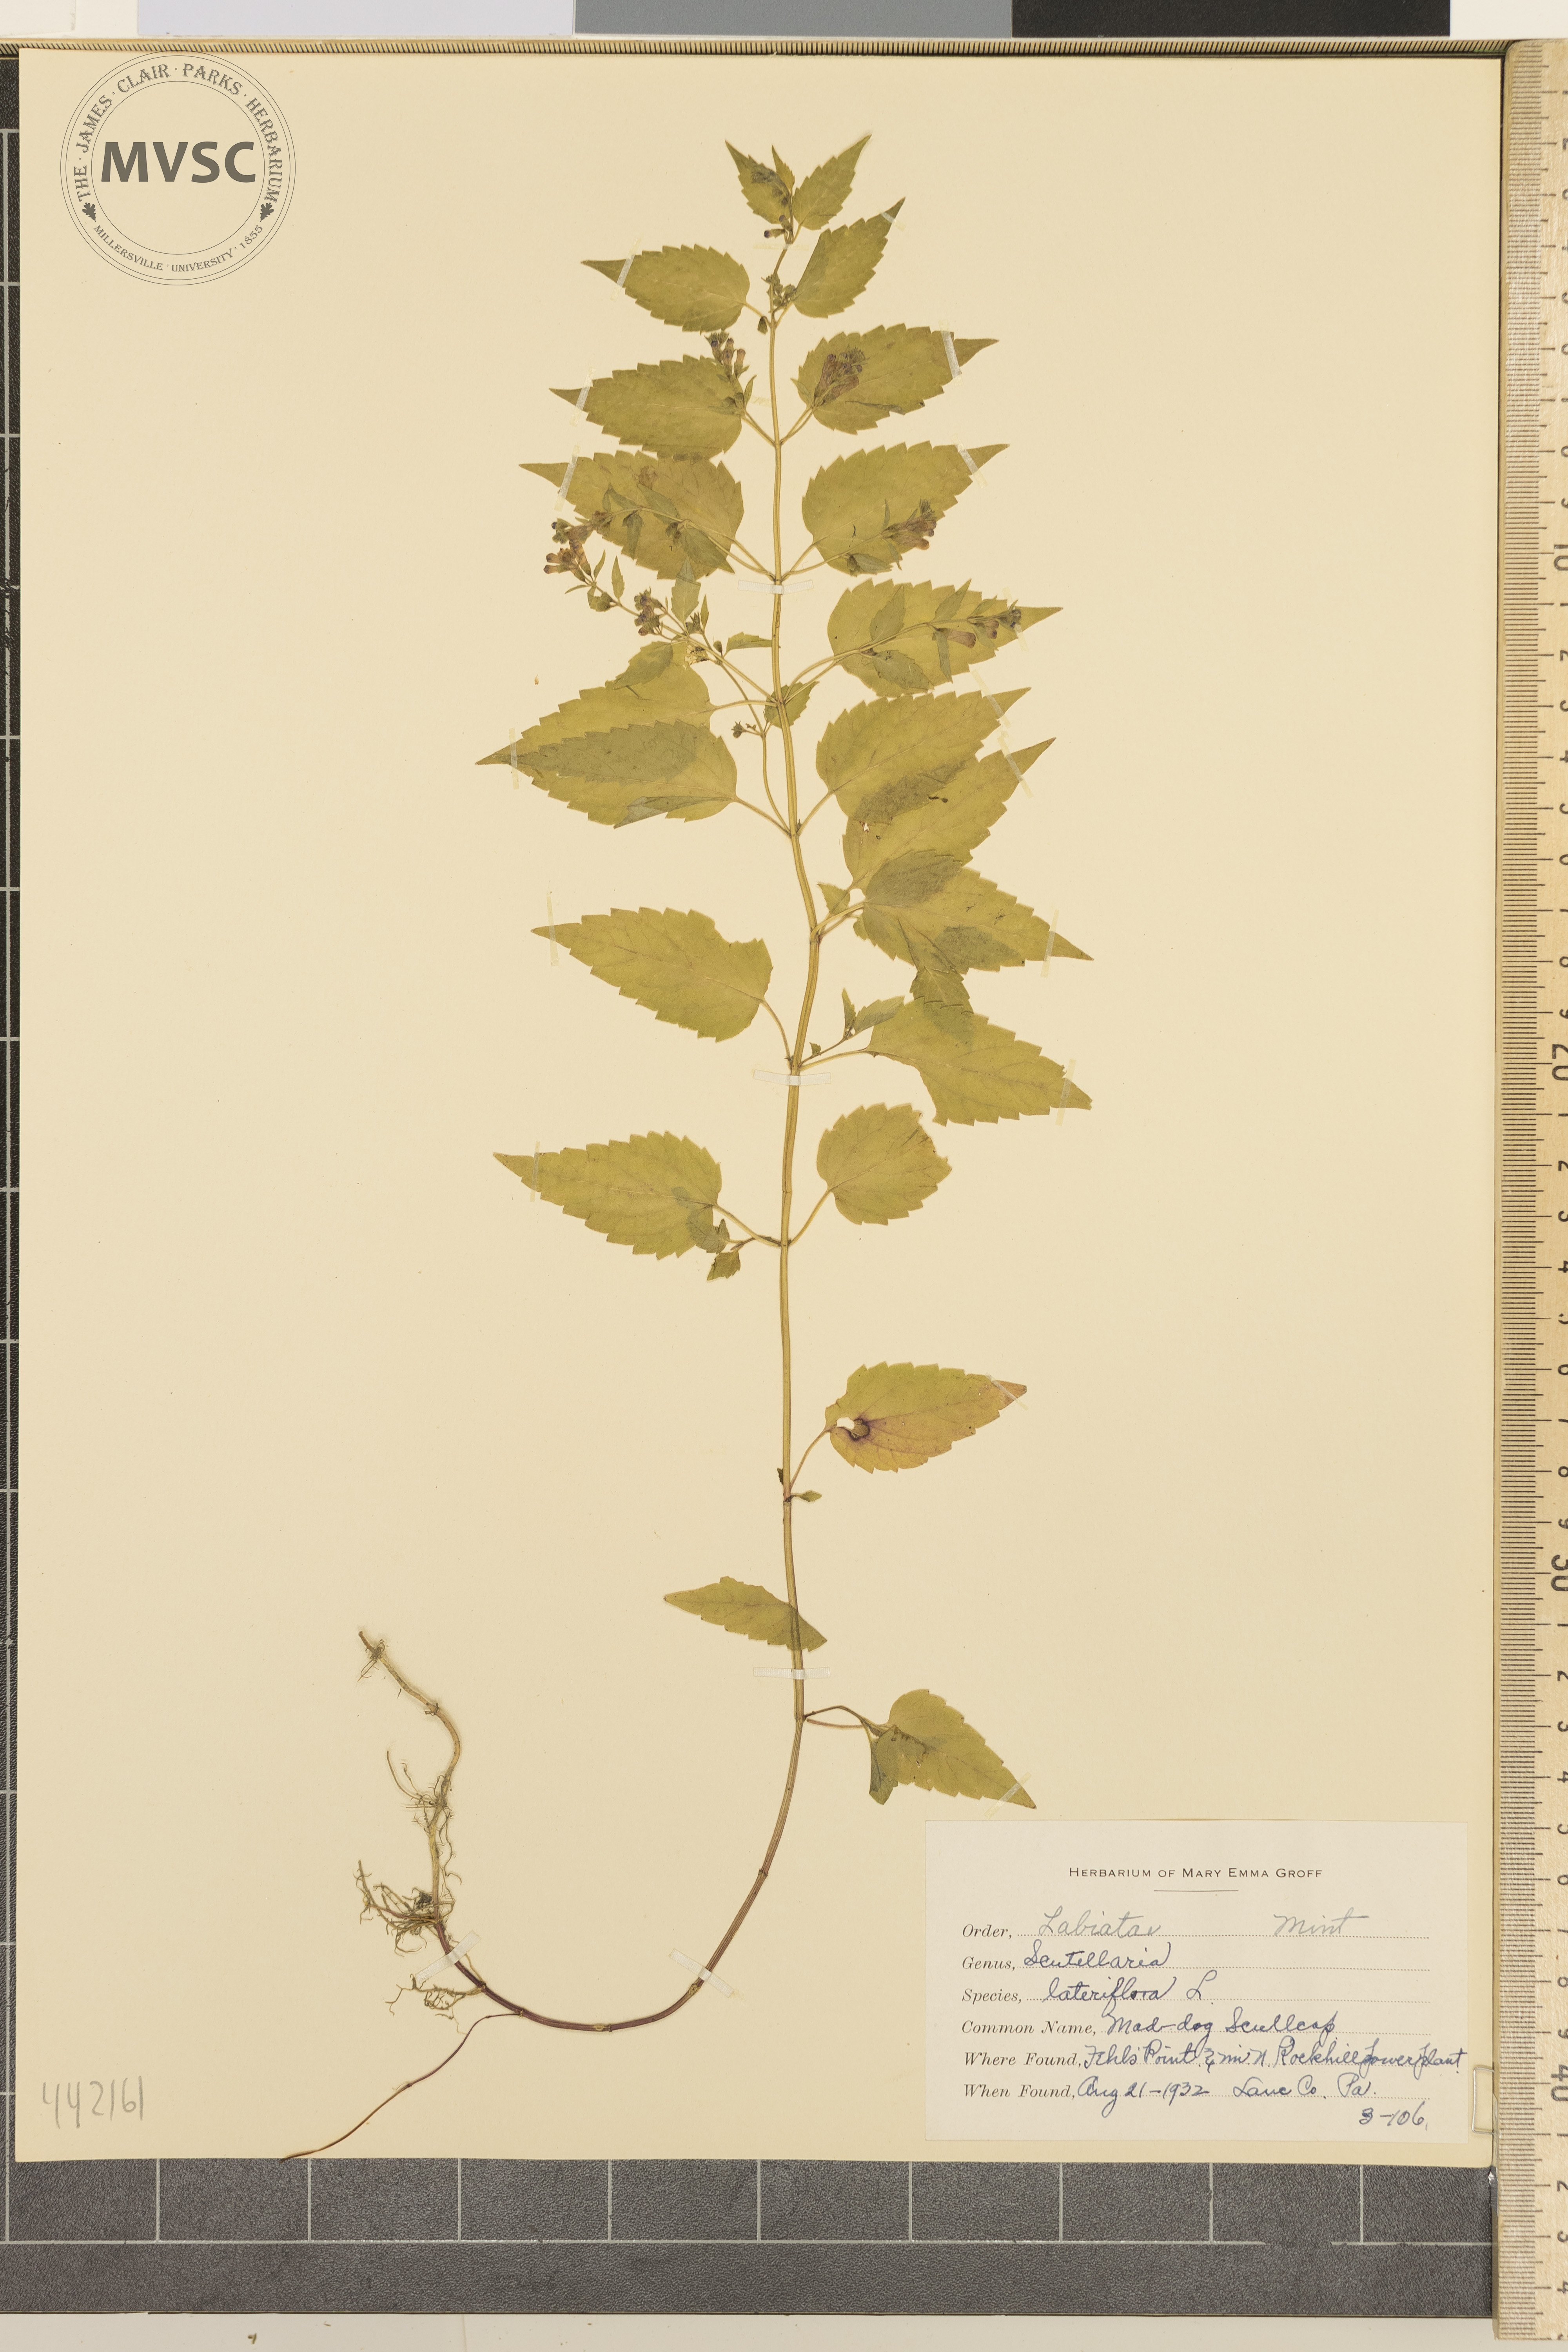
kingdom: Plantae
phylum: Tracheophyta
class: Magnoliopsida
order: Lamiales
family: Lamiaceae
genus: Scutellaria
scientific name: Scutellaria lateriflora
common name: Mad-dog scullcap
